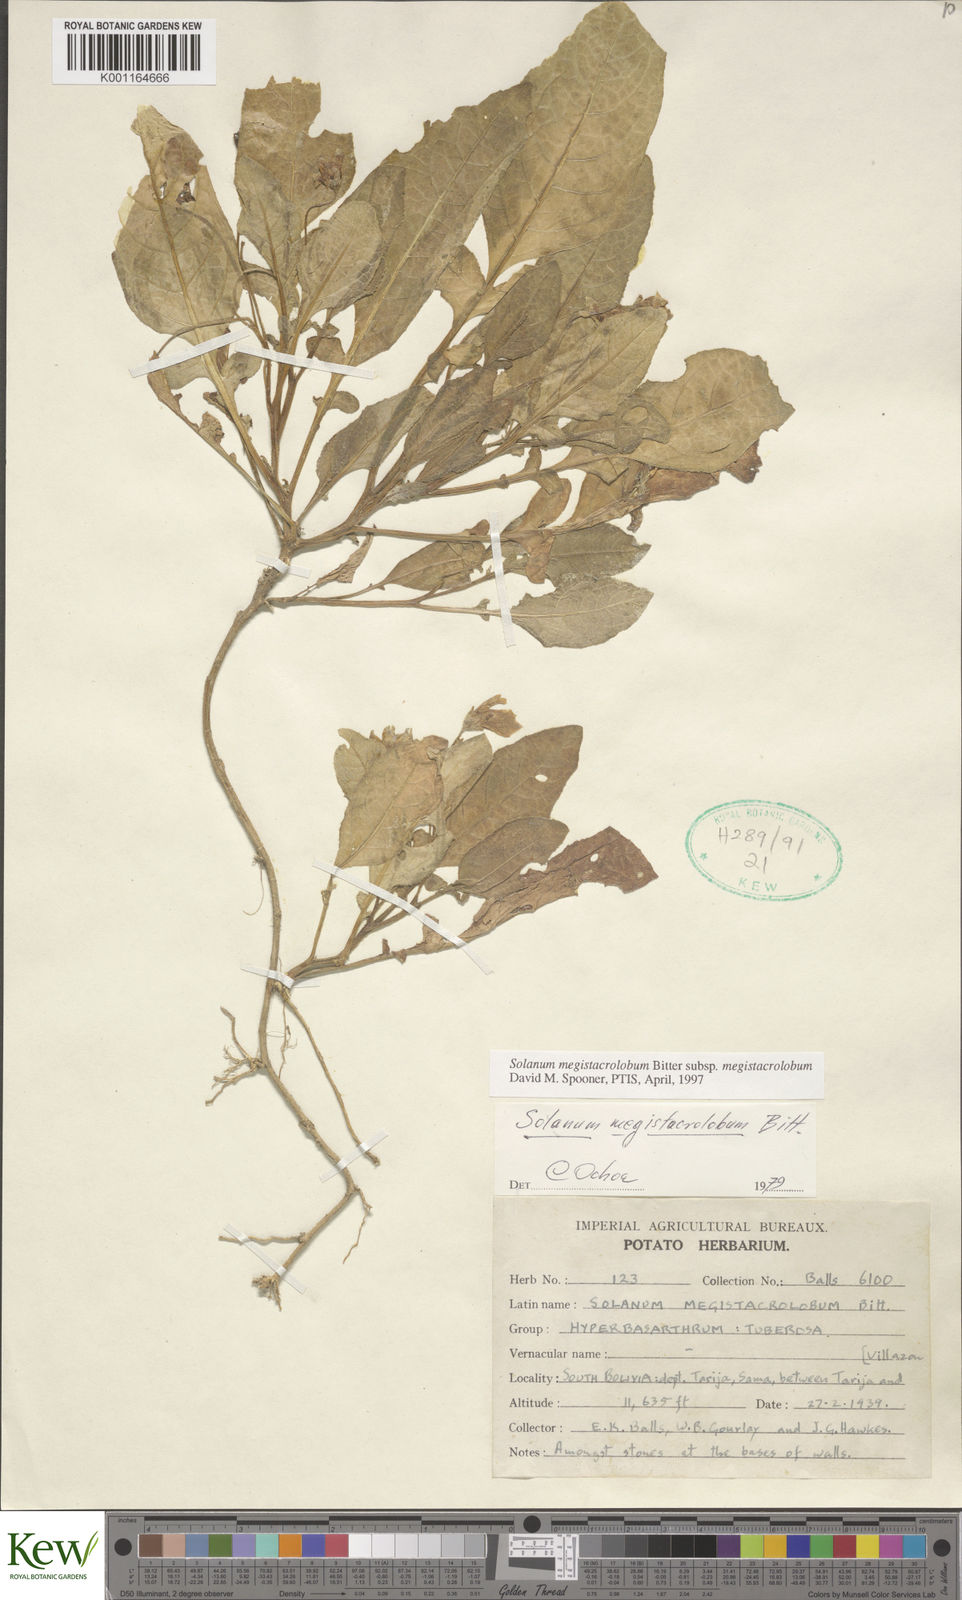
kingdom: Plantae
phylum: Tracheophyta
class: Magnoliopsida
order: Solanales
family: Solanaceae
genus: Solanum
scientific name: Solanum boliviense
